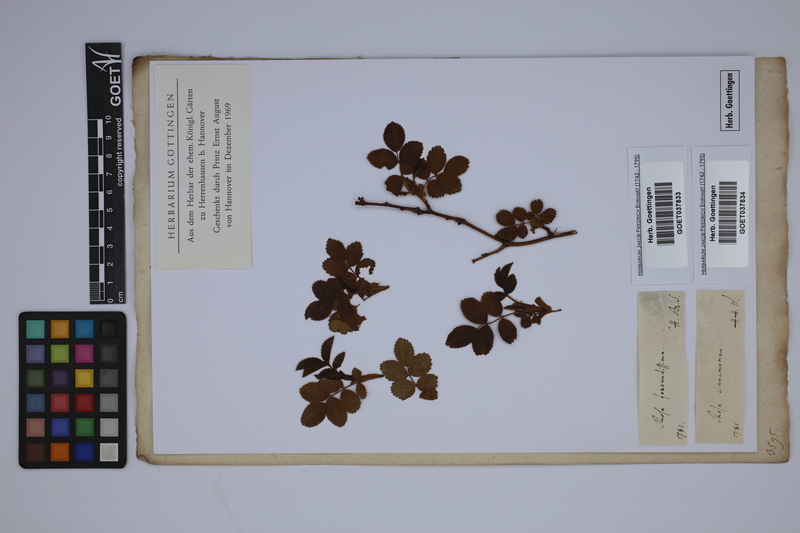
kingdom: Plantae
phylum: Tracheophyta
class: Magnoliopsida
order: Rosales
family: Rosaceae
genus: Rosa
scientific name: Rosa majalis
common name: Cinnamon rose
